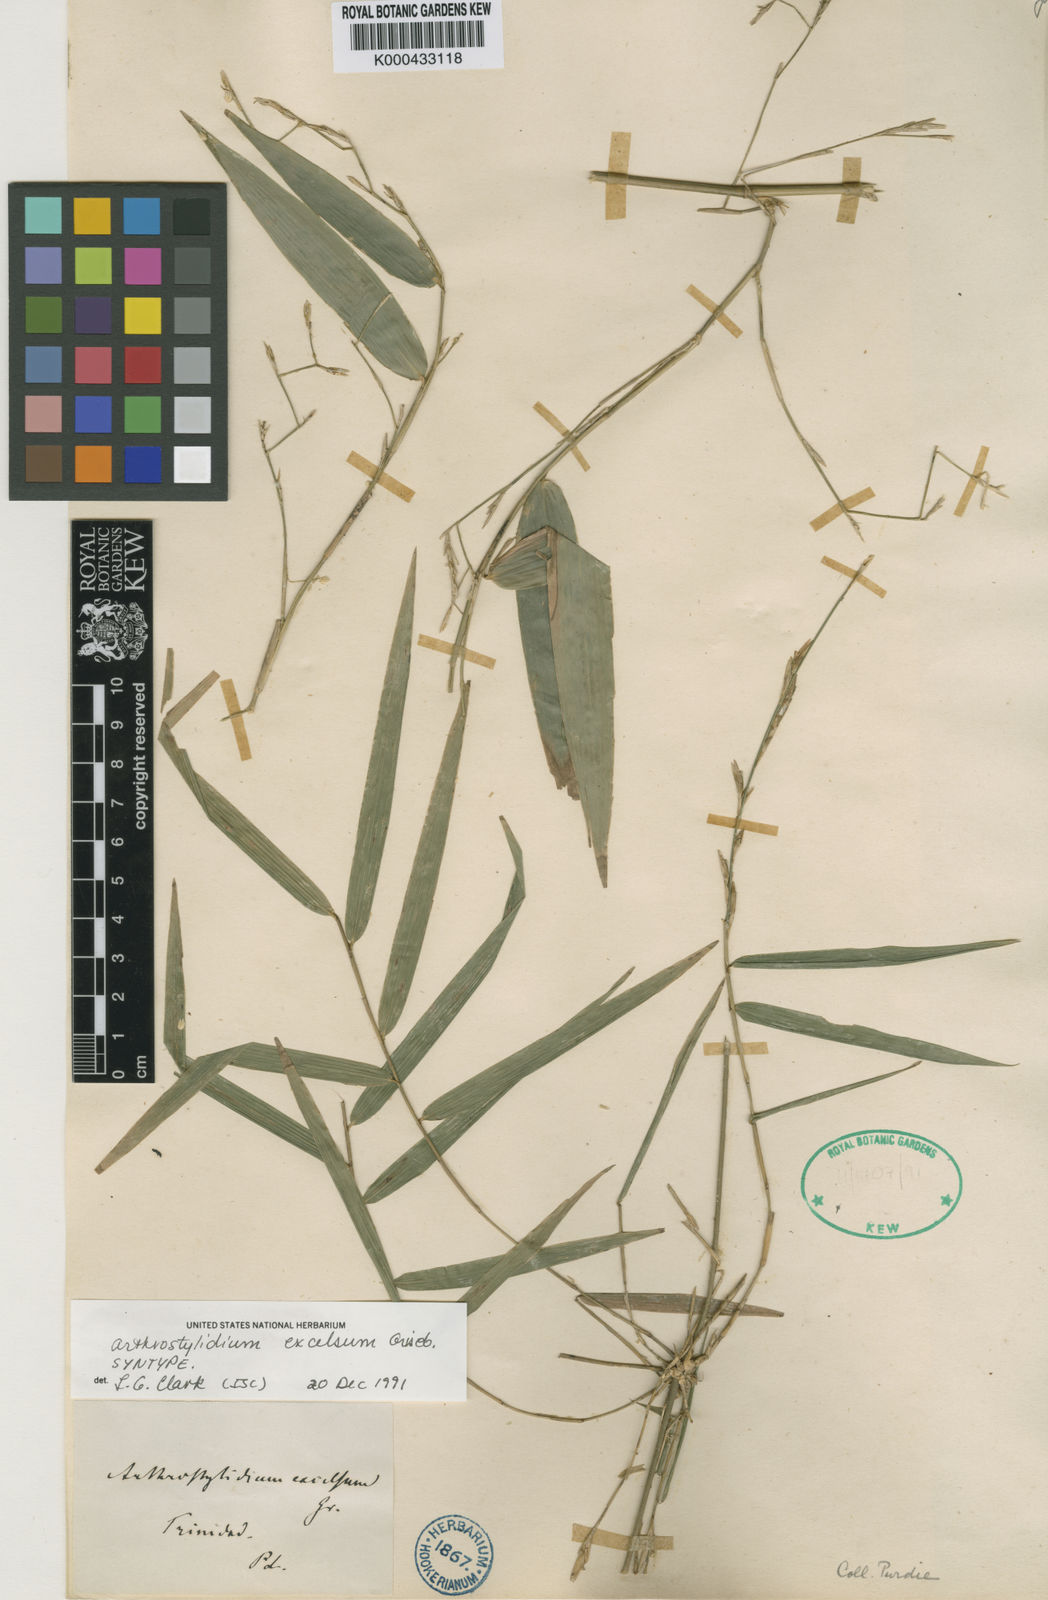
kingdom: Plantae
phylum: Tracheophyta
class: Liliopsida
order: Poales
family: Poaceae
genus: Arthrostylidium
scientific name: Arthrostylidium excelsum
